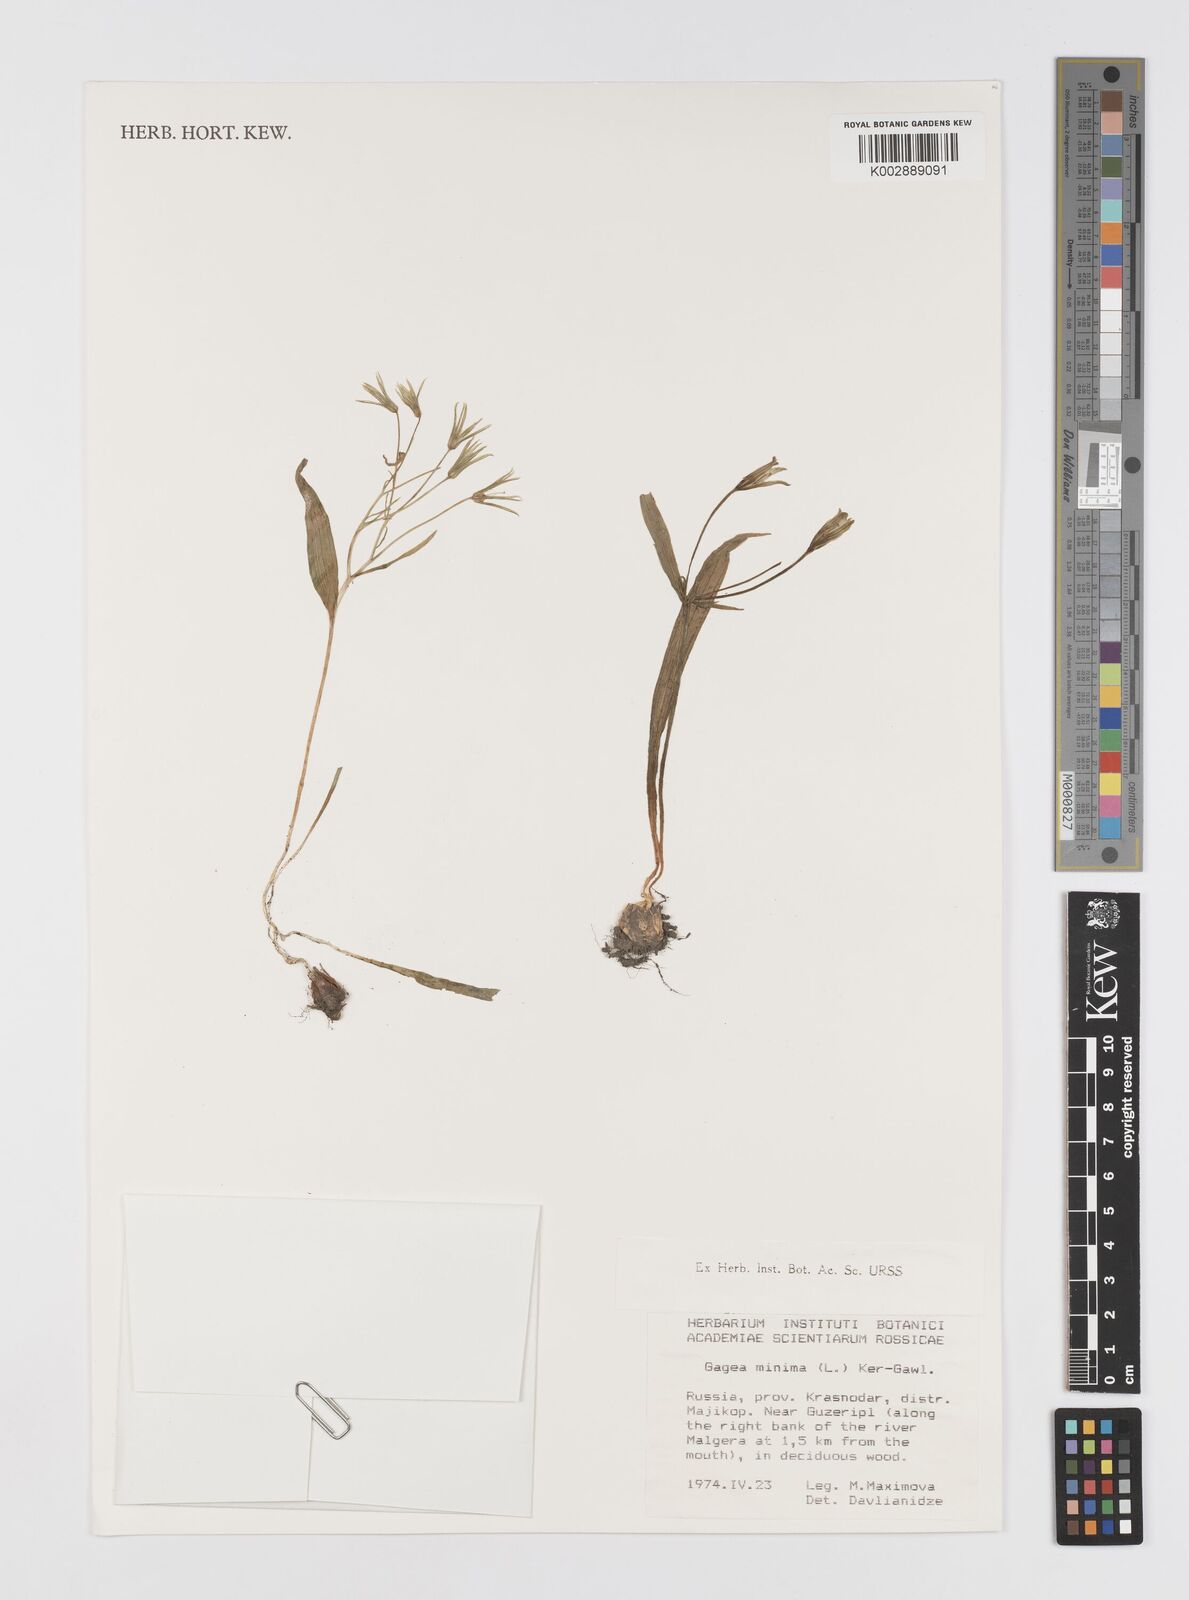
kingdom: Plantae
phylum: Tracheophyta
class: Liliopsida
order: Liliales
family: Liliaceae
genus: Gagea
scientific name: Gagea minima
